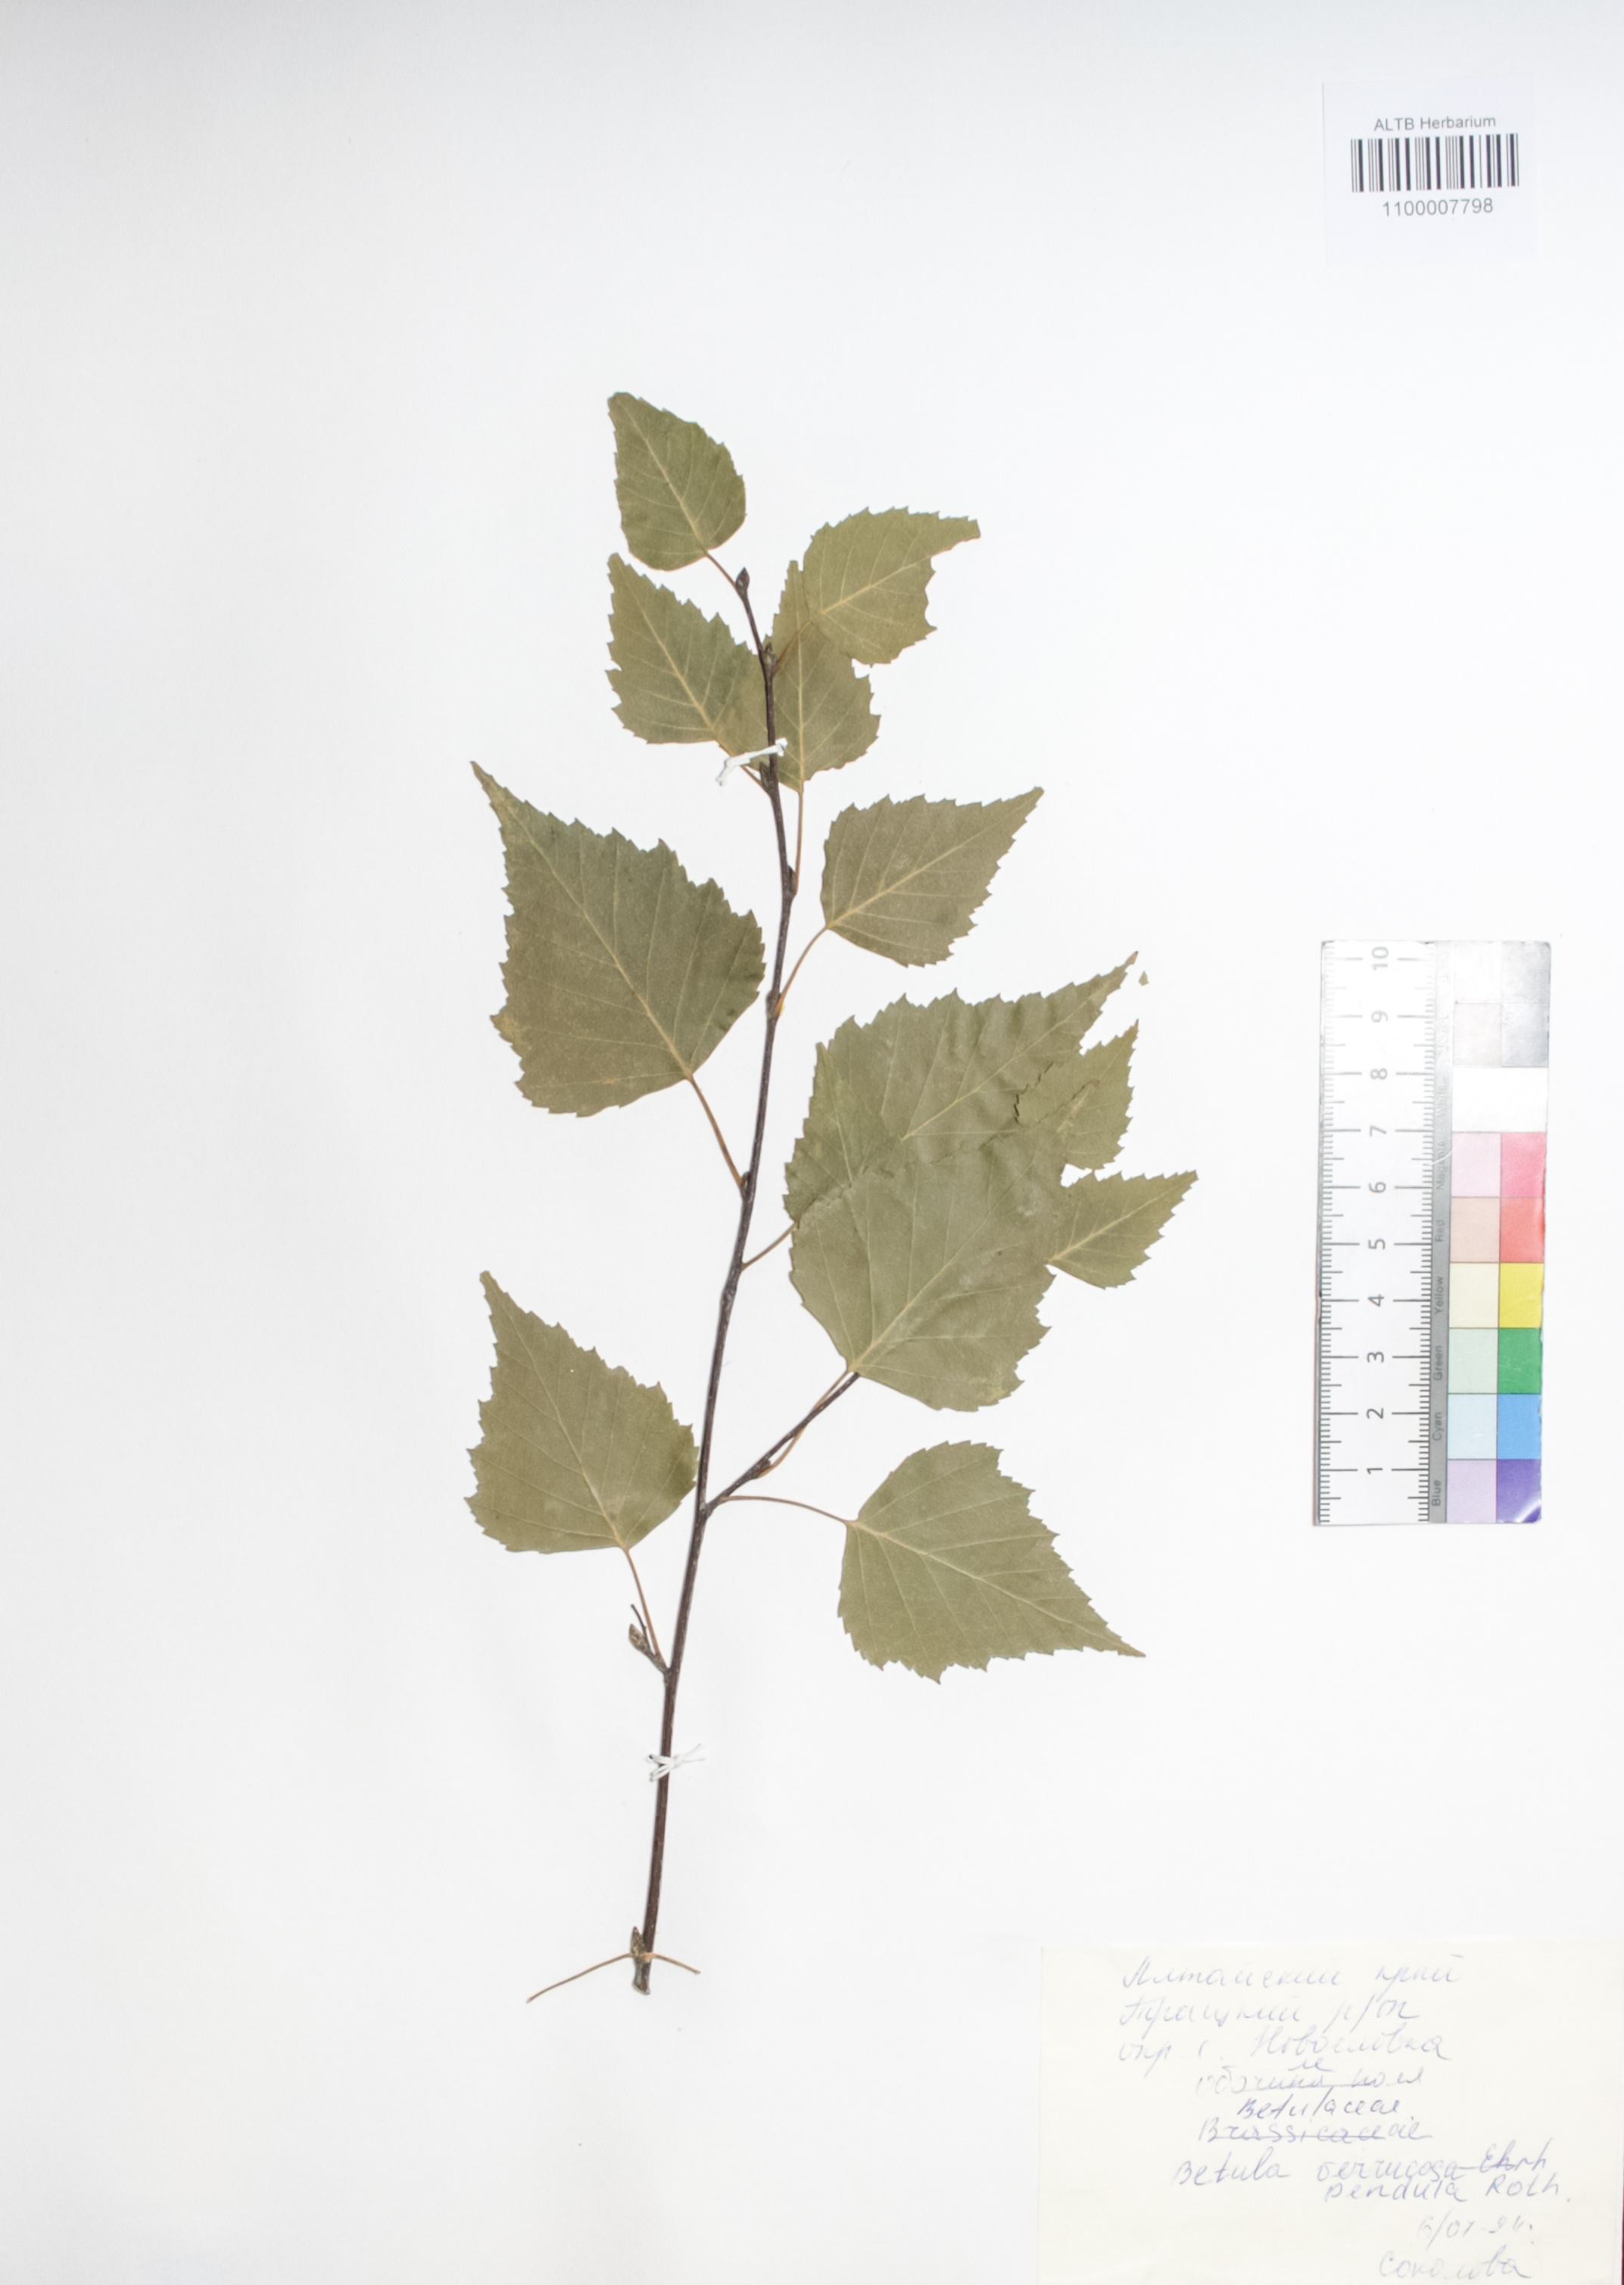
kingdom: Plantae
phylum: Tracheophyta
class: Magnoliopsida
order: Fagales
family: Betulaceae
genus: Betula
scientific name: Betula pendula
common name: Silver birch
